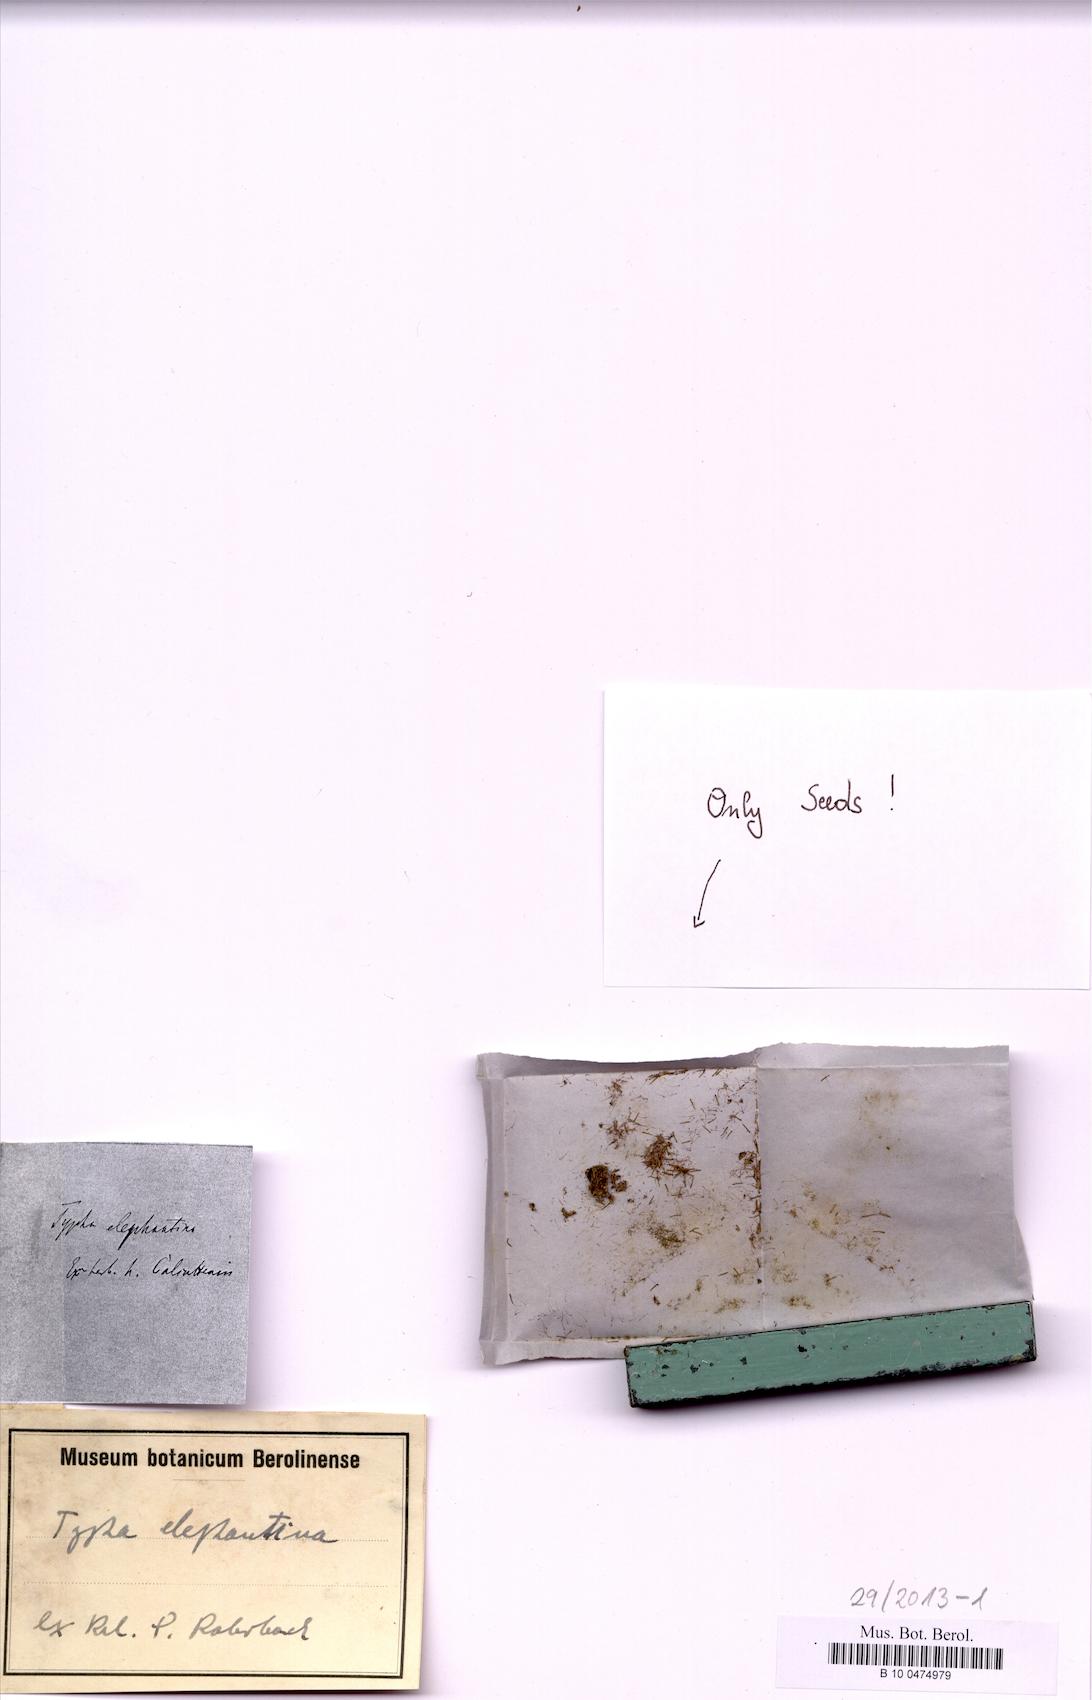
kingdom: Plantae
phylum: Tracheophyta
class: Liliopsida
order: Poales
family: Typhaceae
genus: Typha
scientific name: Typha elephantina
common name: Indian reed-grass
